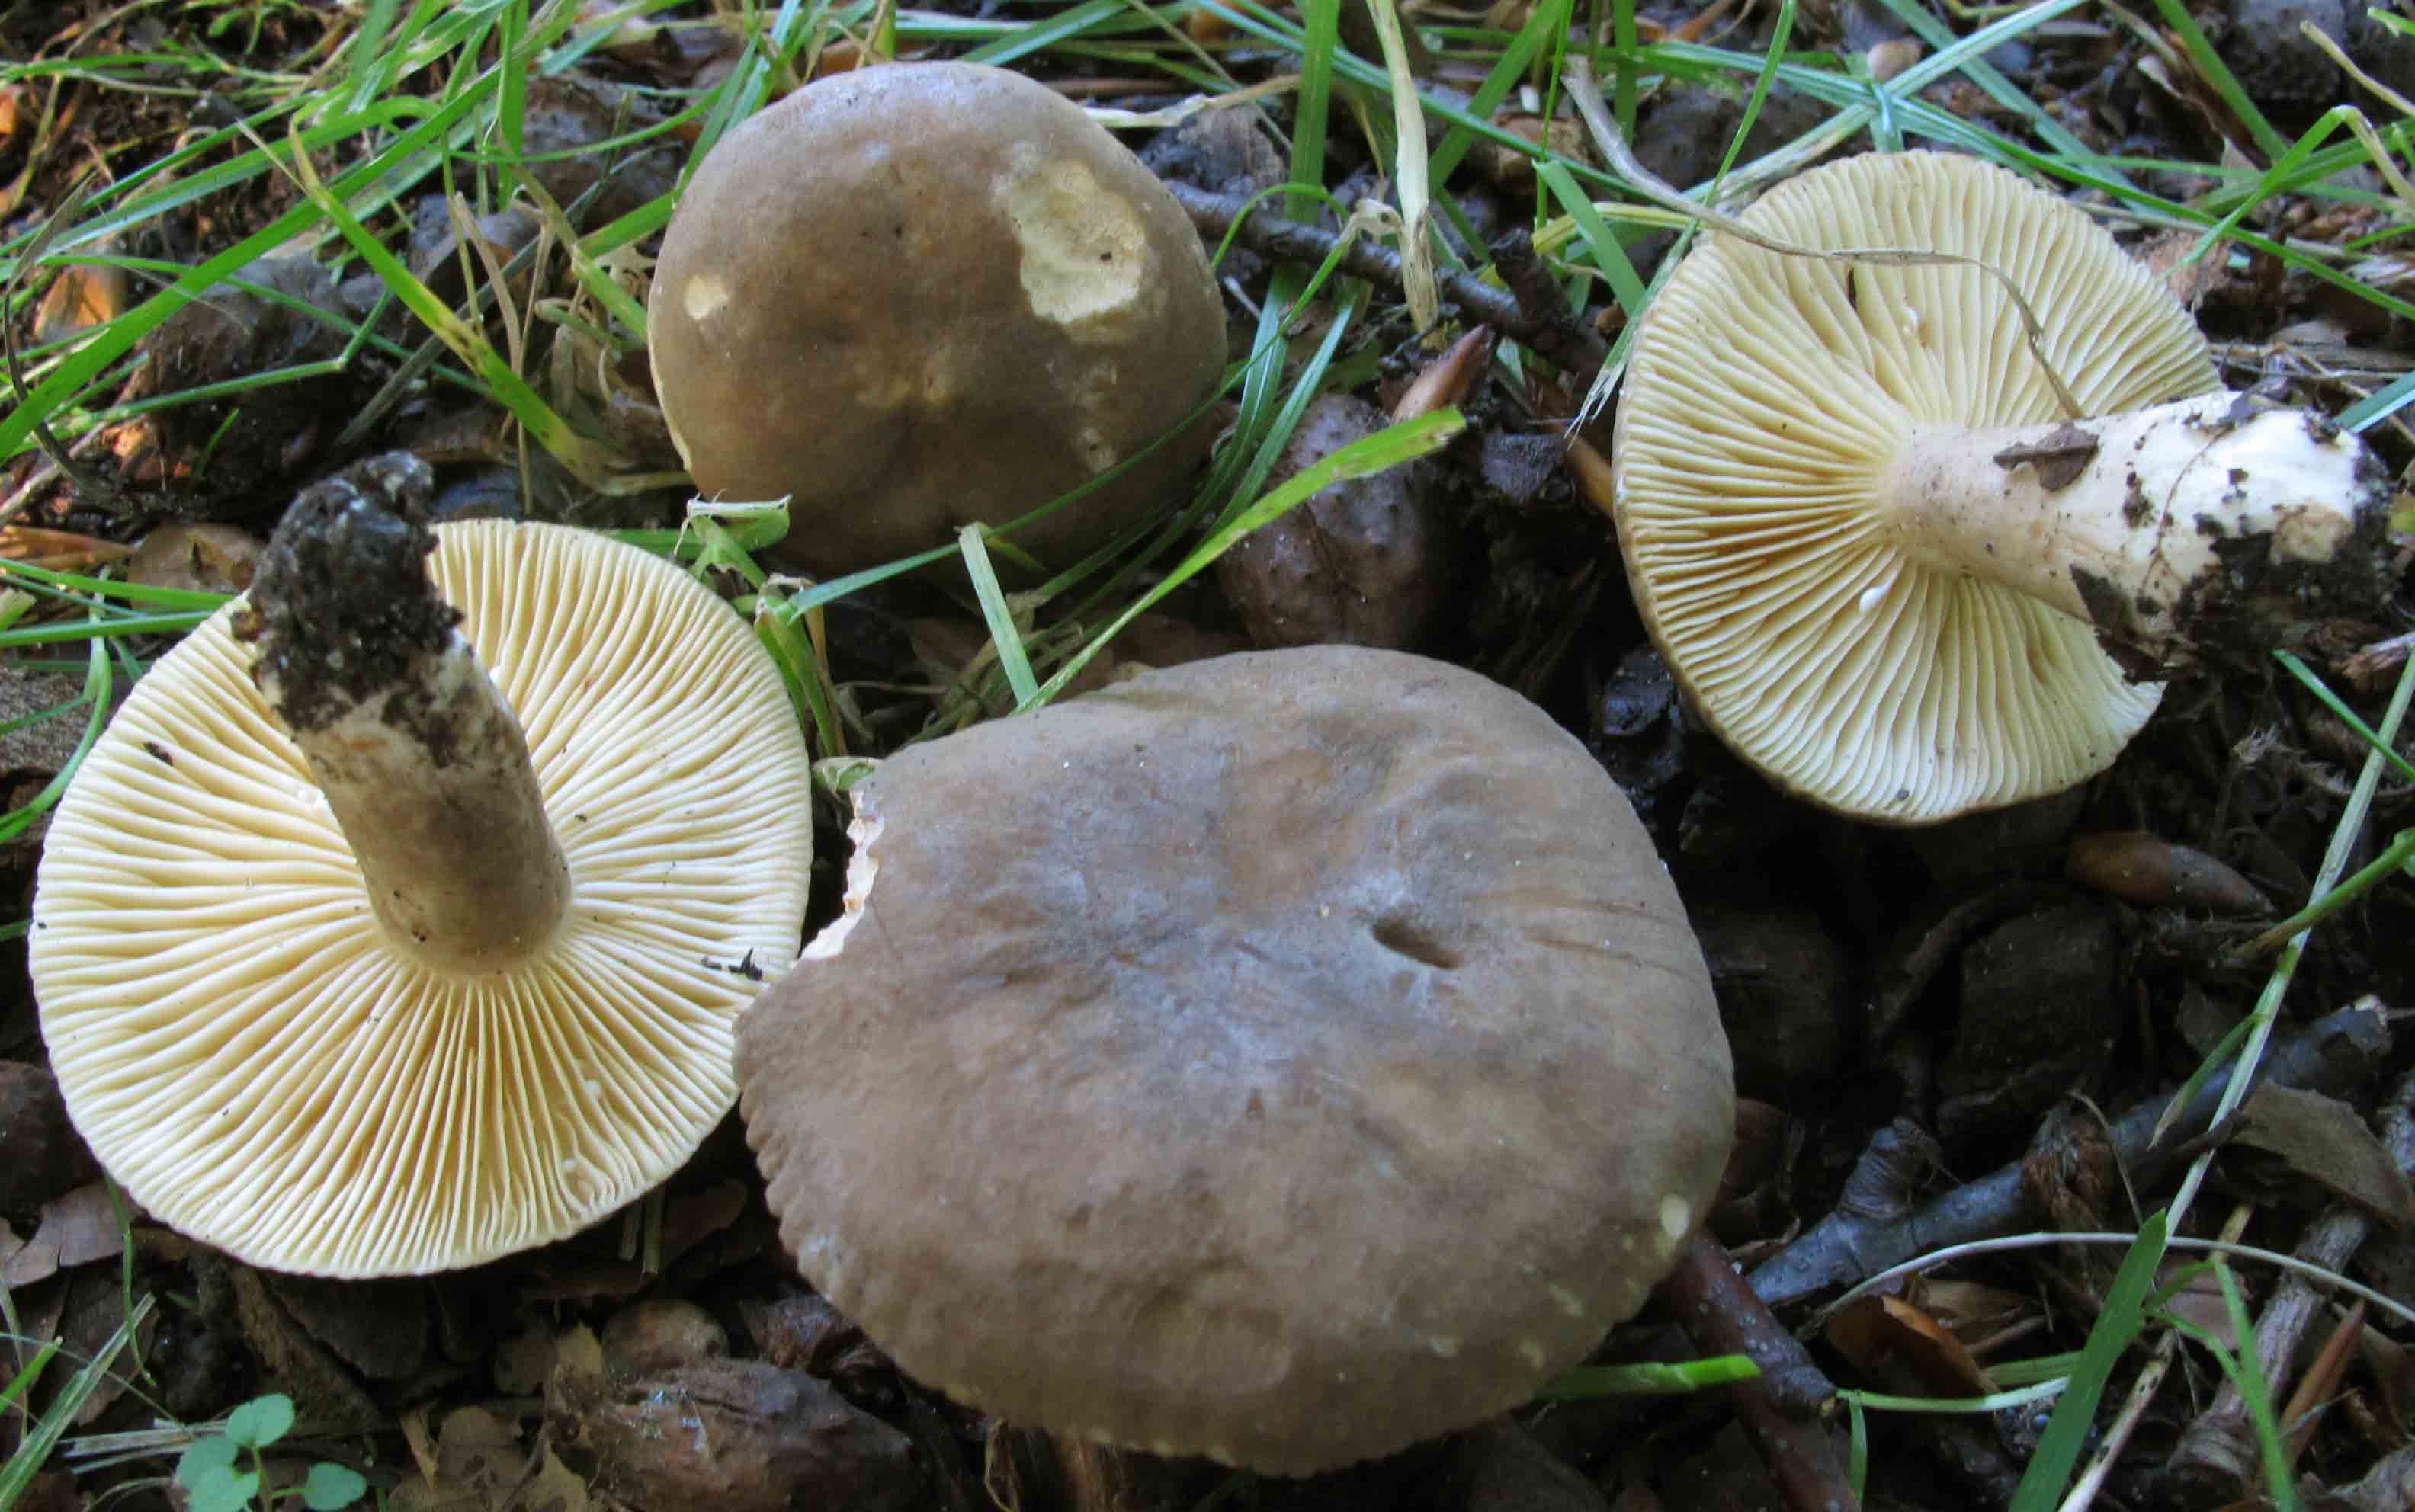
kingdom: Fungi
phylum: Basidiomycota
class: Agaricomycetes
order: Russulales
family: Russulaceae
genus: Lactarius
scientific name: Lactarius ruginosus
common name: gråbrun mælkehat
